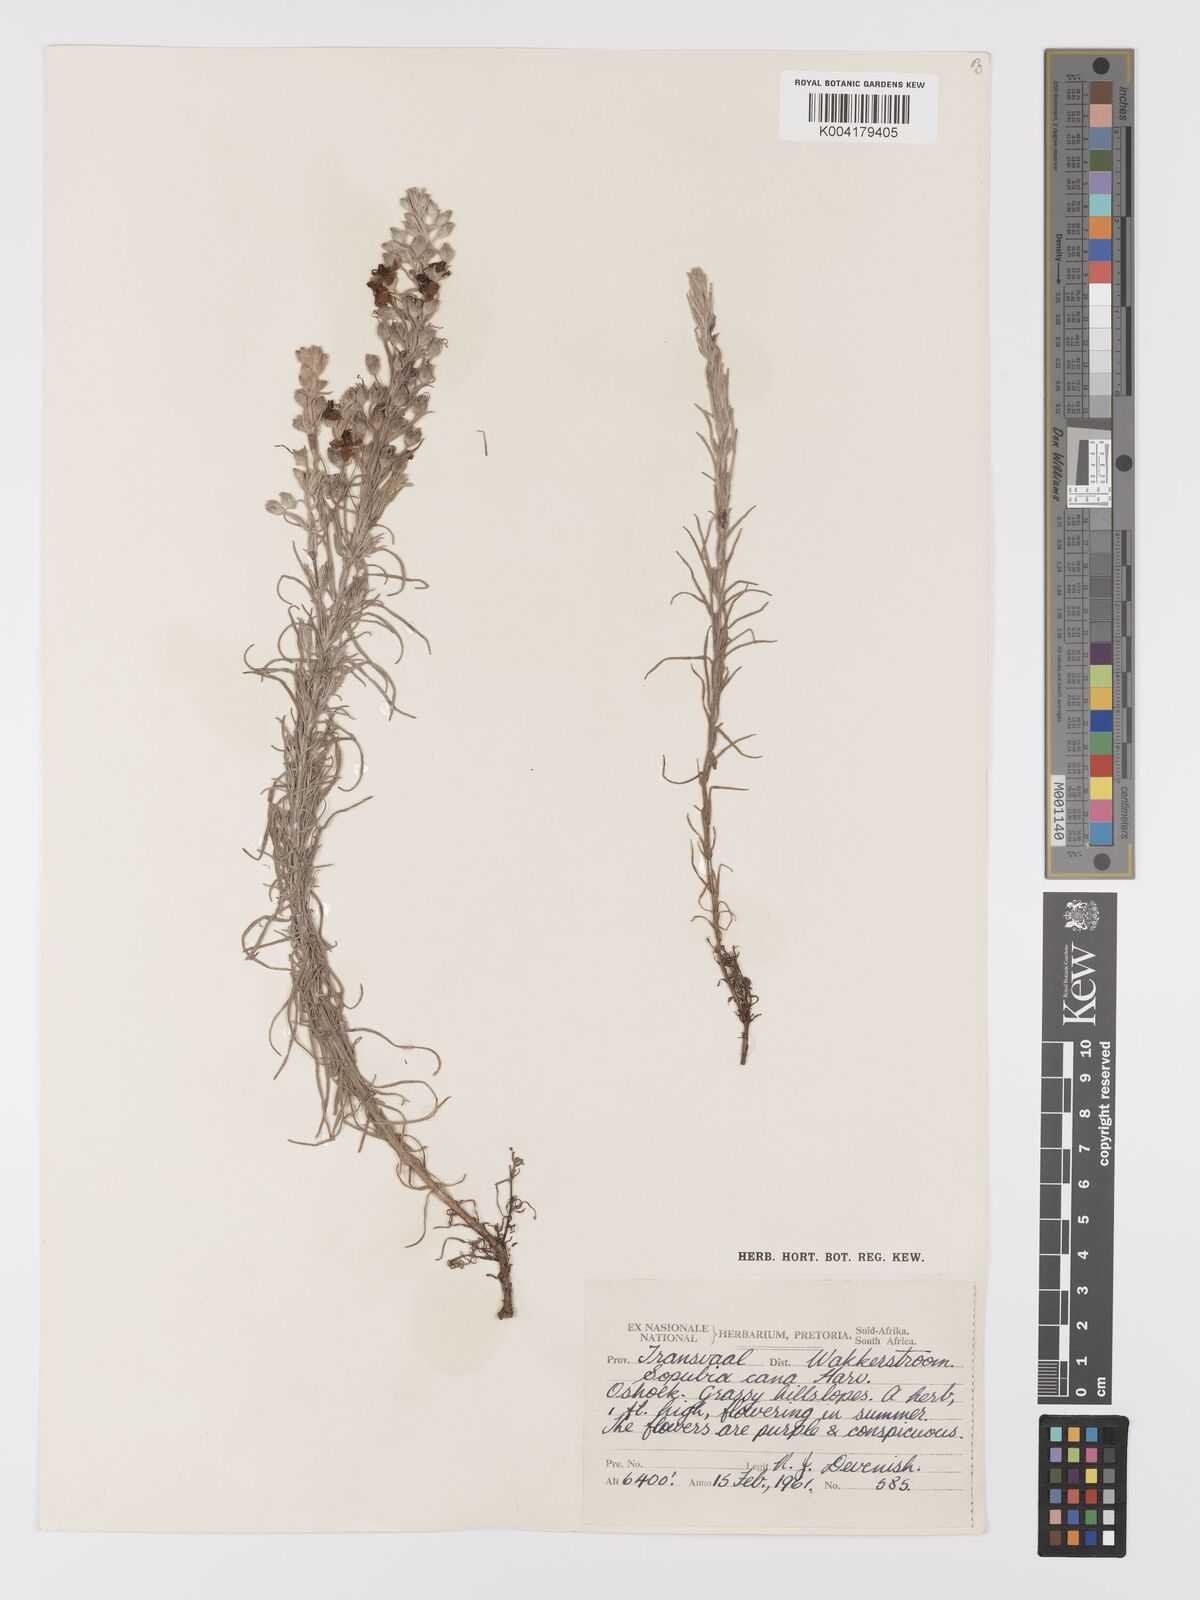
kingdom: Plantae
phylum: Tracheophyta
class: Magnoliopsida
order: Lamiales
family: Orobanchaceae
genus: Sopubia
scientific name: Sopubia cana
